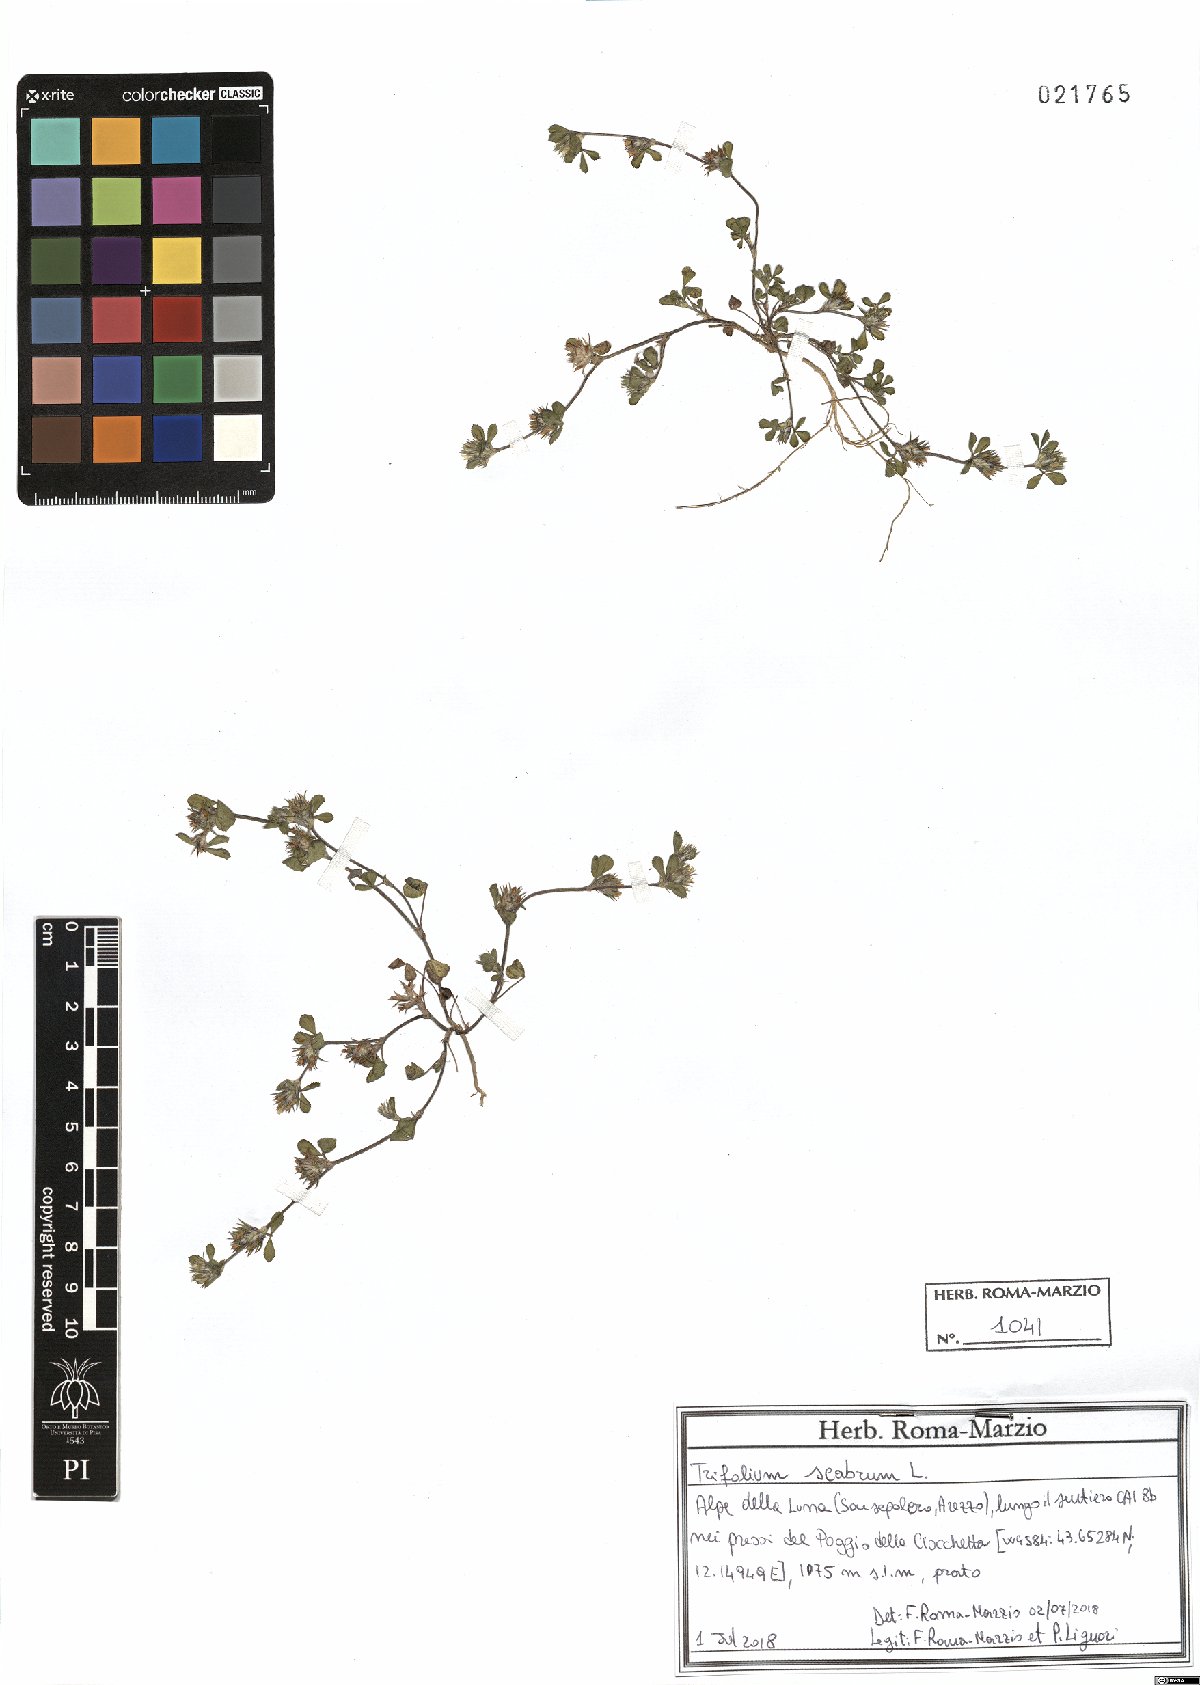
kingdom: Plantae
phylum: Tracheophyta
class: Magnoliopsida
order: Fabales
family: Fabaceae
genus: Trifolium
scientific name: Trifolium scabrum
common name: Rough clover
